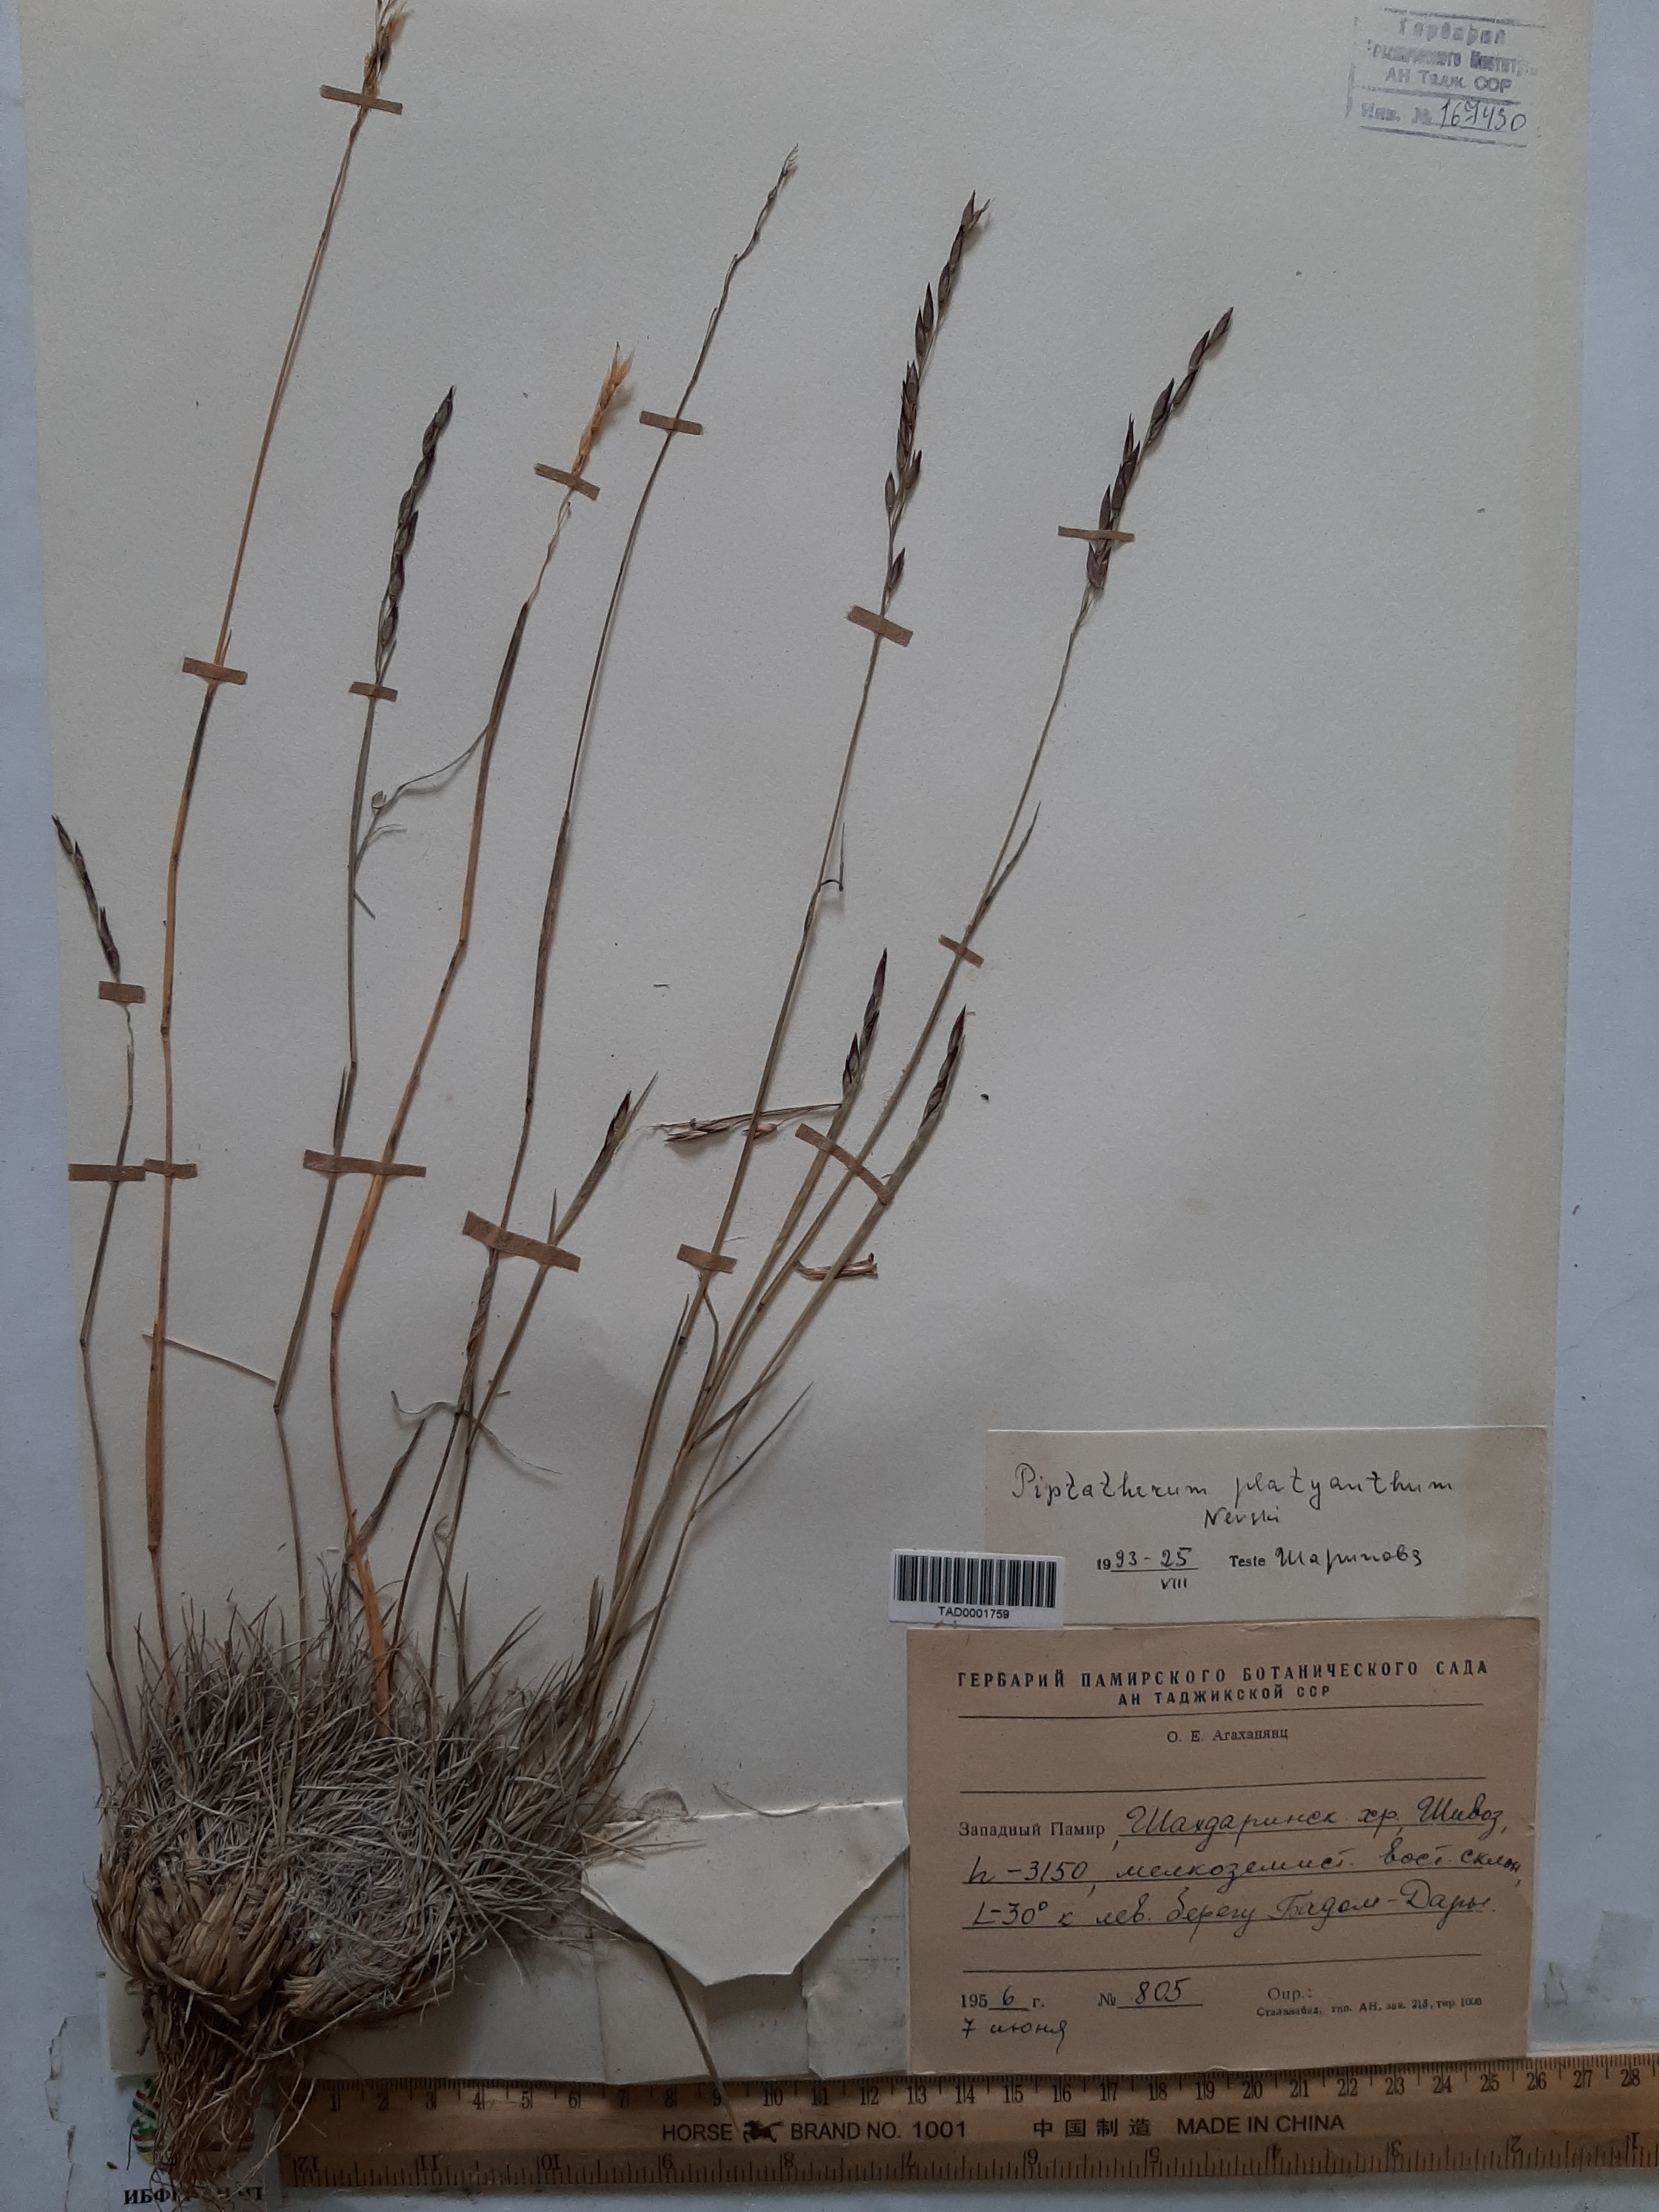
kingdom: Plantae
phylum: Tracheophyta
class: Liliopsida
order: Poales
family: Poaceae
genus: Piptatherum
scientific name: Piptatherum platyanthum
